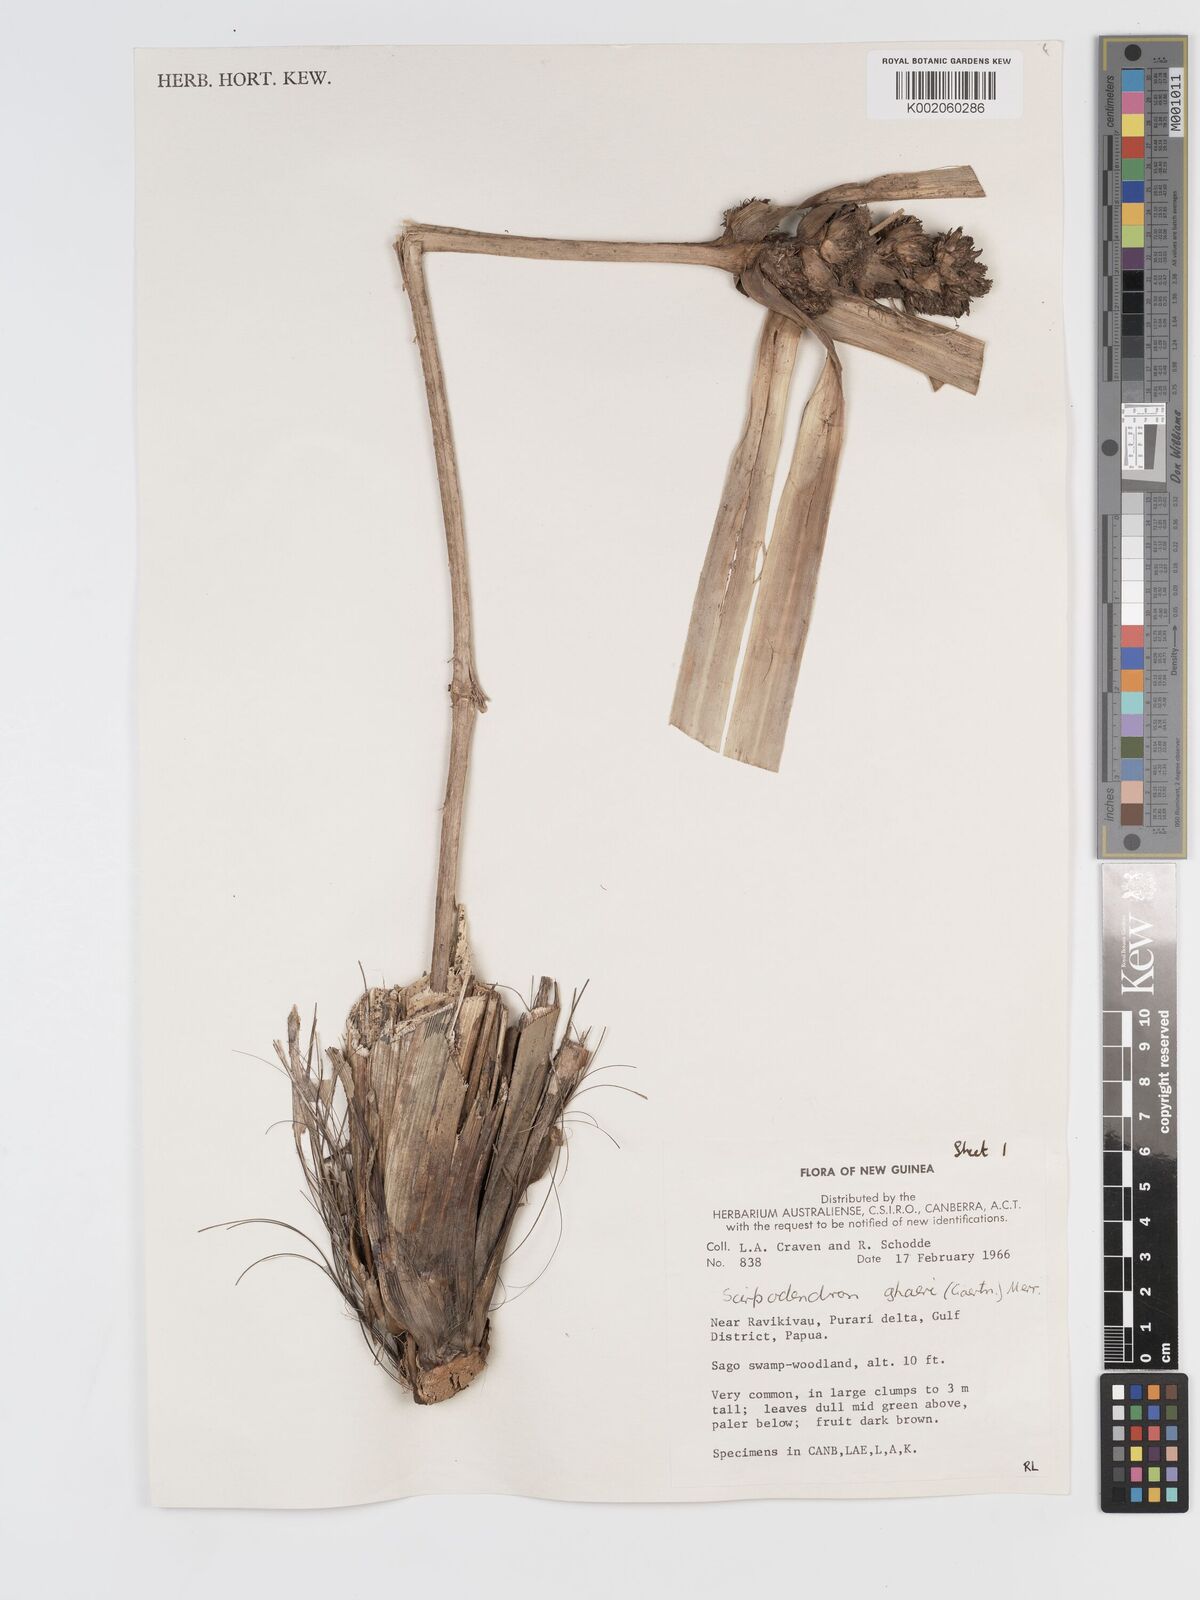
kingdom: Plantae
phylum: Tracheophyta
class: Liliopsida
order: Poales
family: Cyperaceae
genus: Scirpodendron
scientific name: Scirpodendron ghaeri
